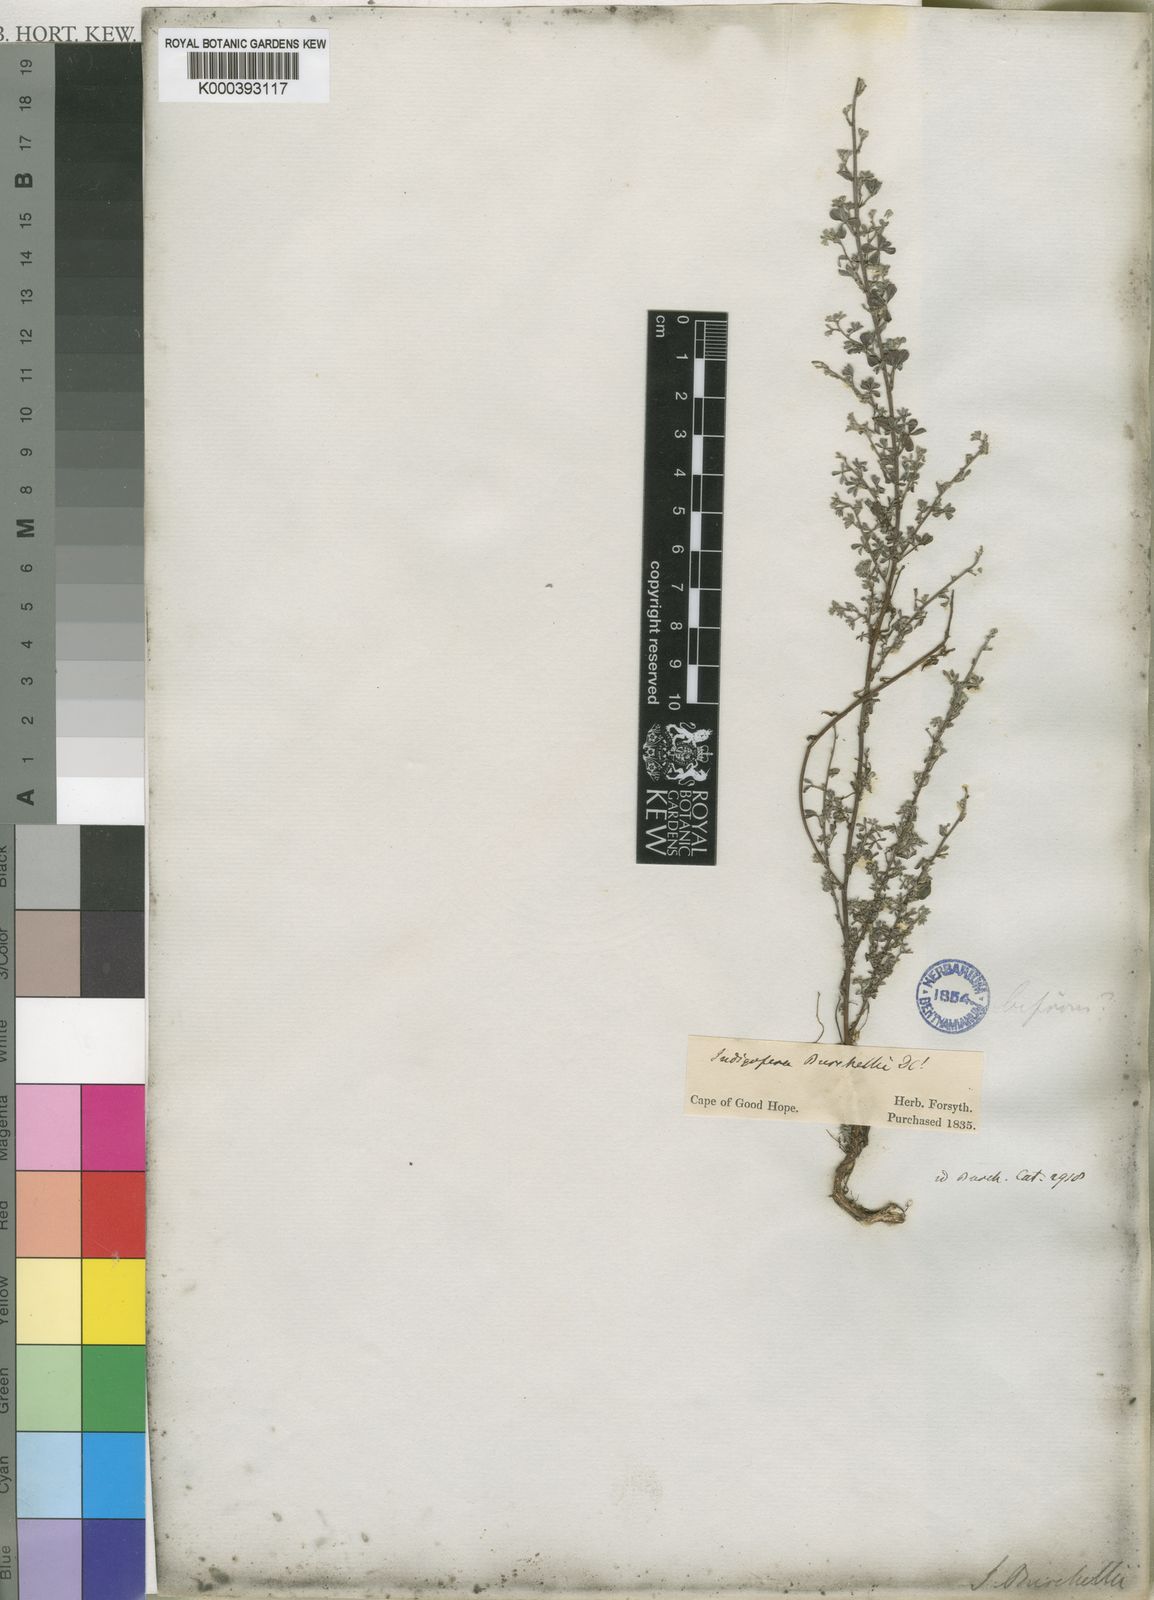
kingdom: Plantae
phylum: Tracheophyta
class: Magnoliopsida
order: Fabales
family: Fabaceae
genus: Indigofera
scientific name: Indigofera burchellii
